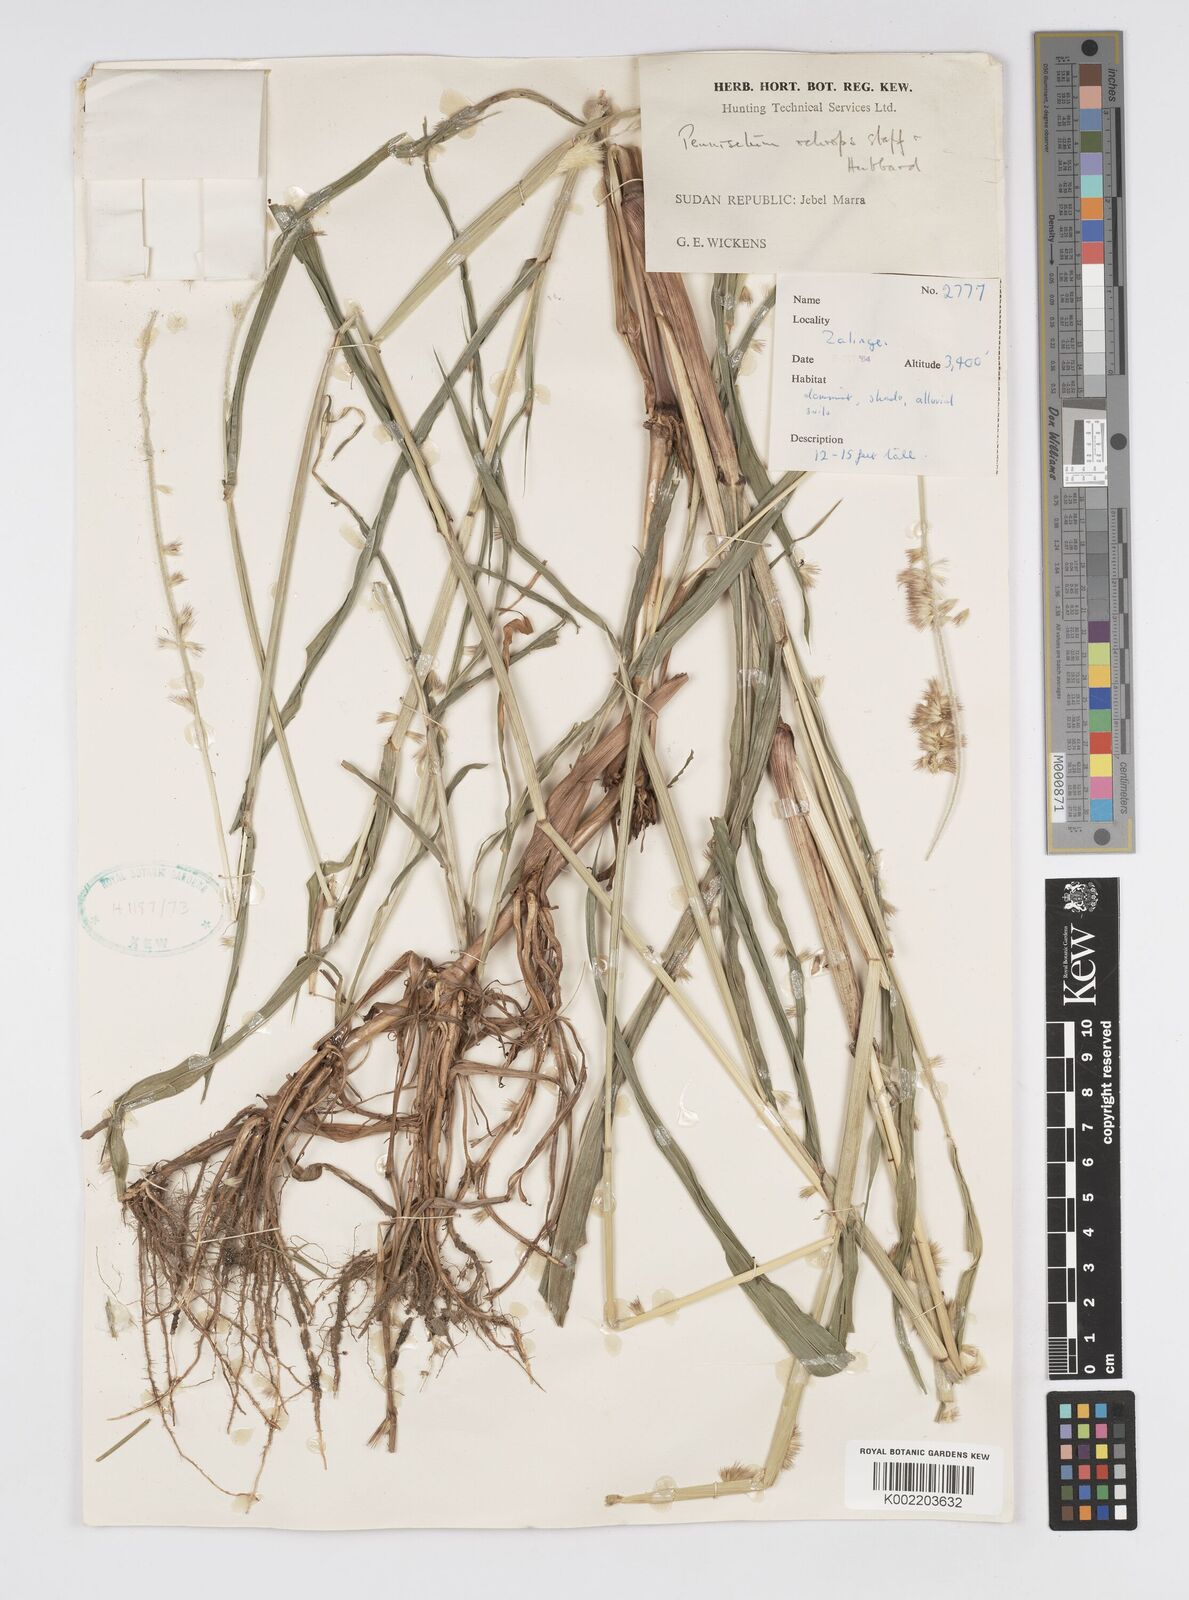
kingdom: Plantae
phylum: Tracheophyta
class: Liliopsida
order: Poales
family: Poaceae
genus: Cenchrus
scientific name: Cenchrus violaceus
